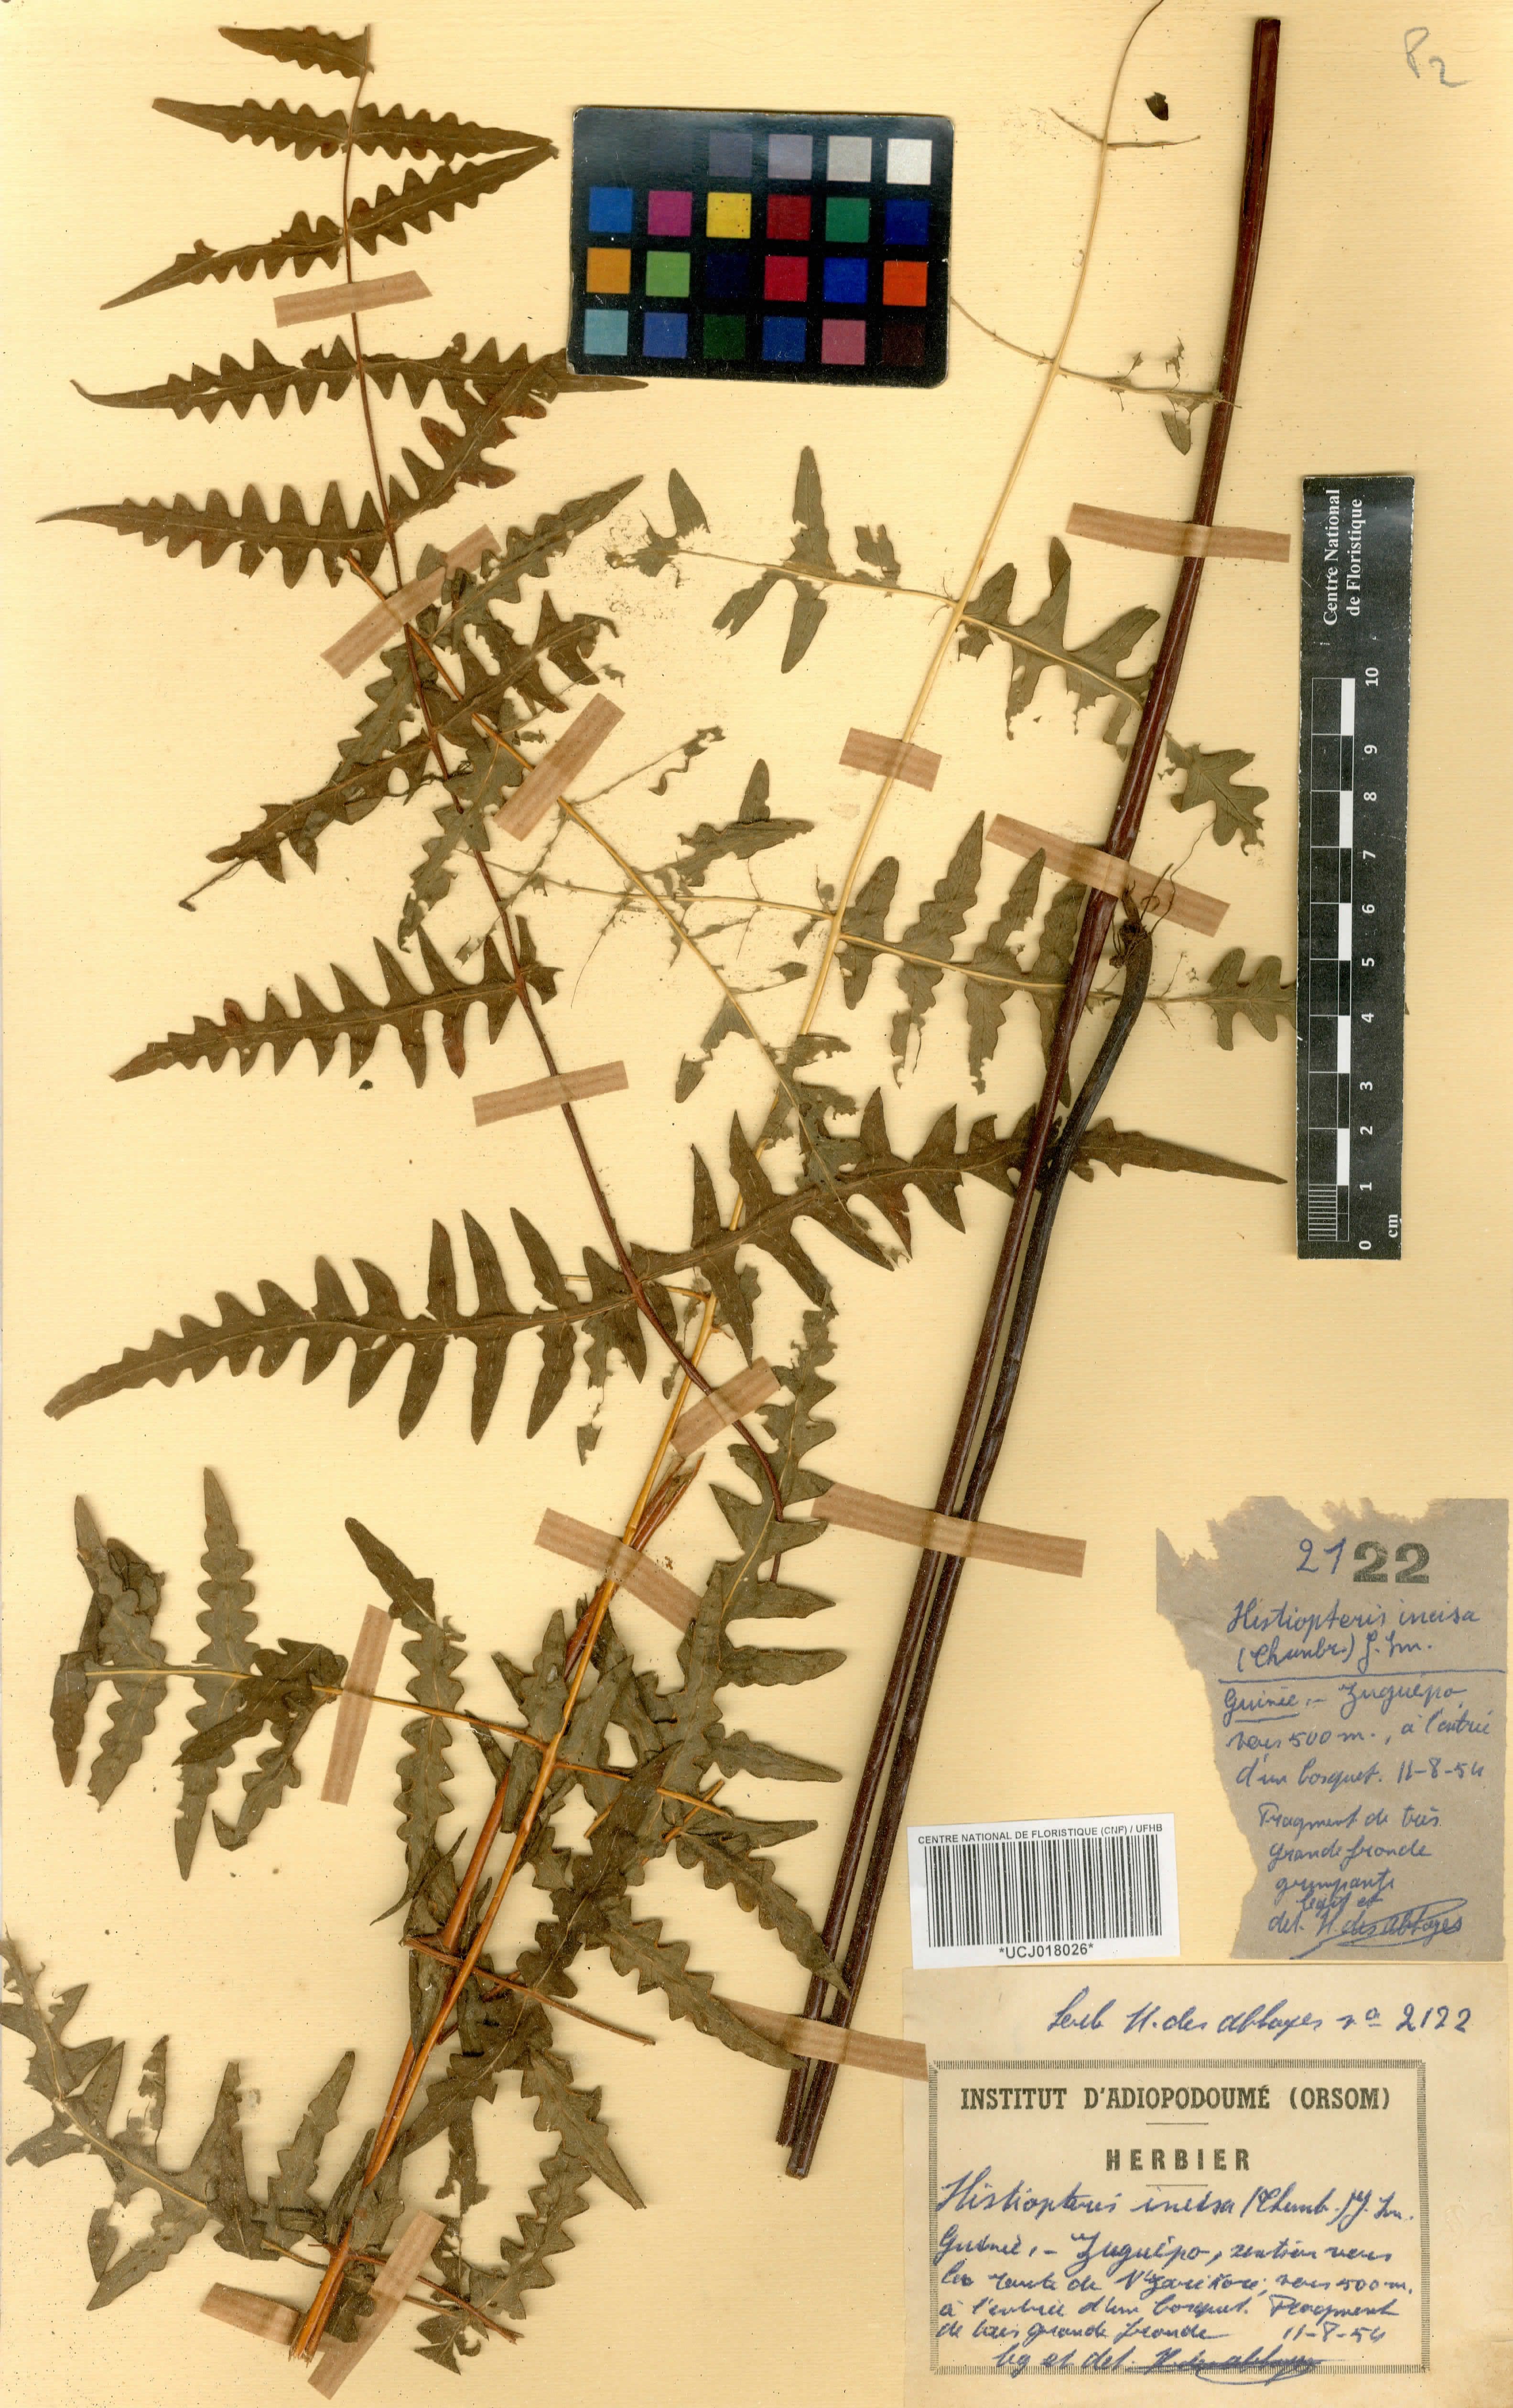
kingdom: Plantae
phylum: Tracheophyta
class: Polypodiopsida
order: Polypodiales
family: Dennstaedtiaceae
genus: Histiopteris
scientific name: Histiopteris incisa
